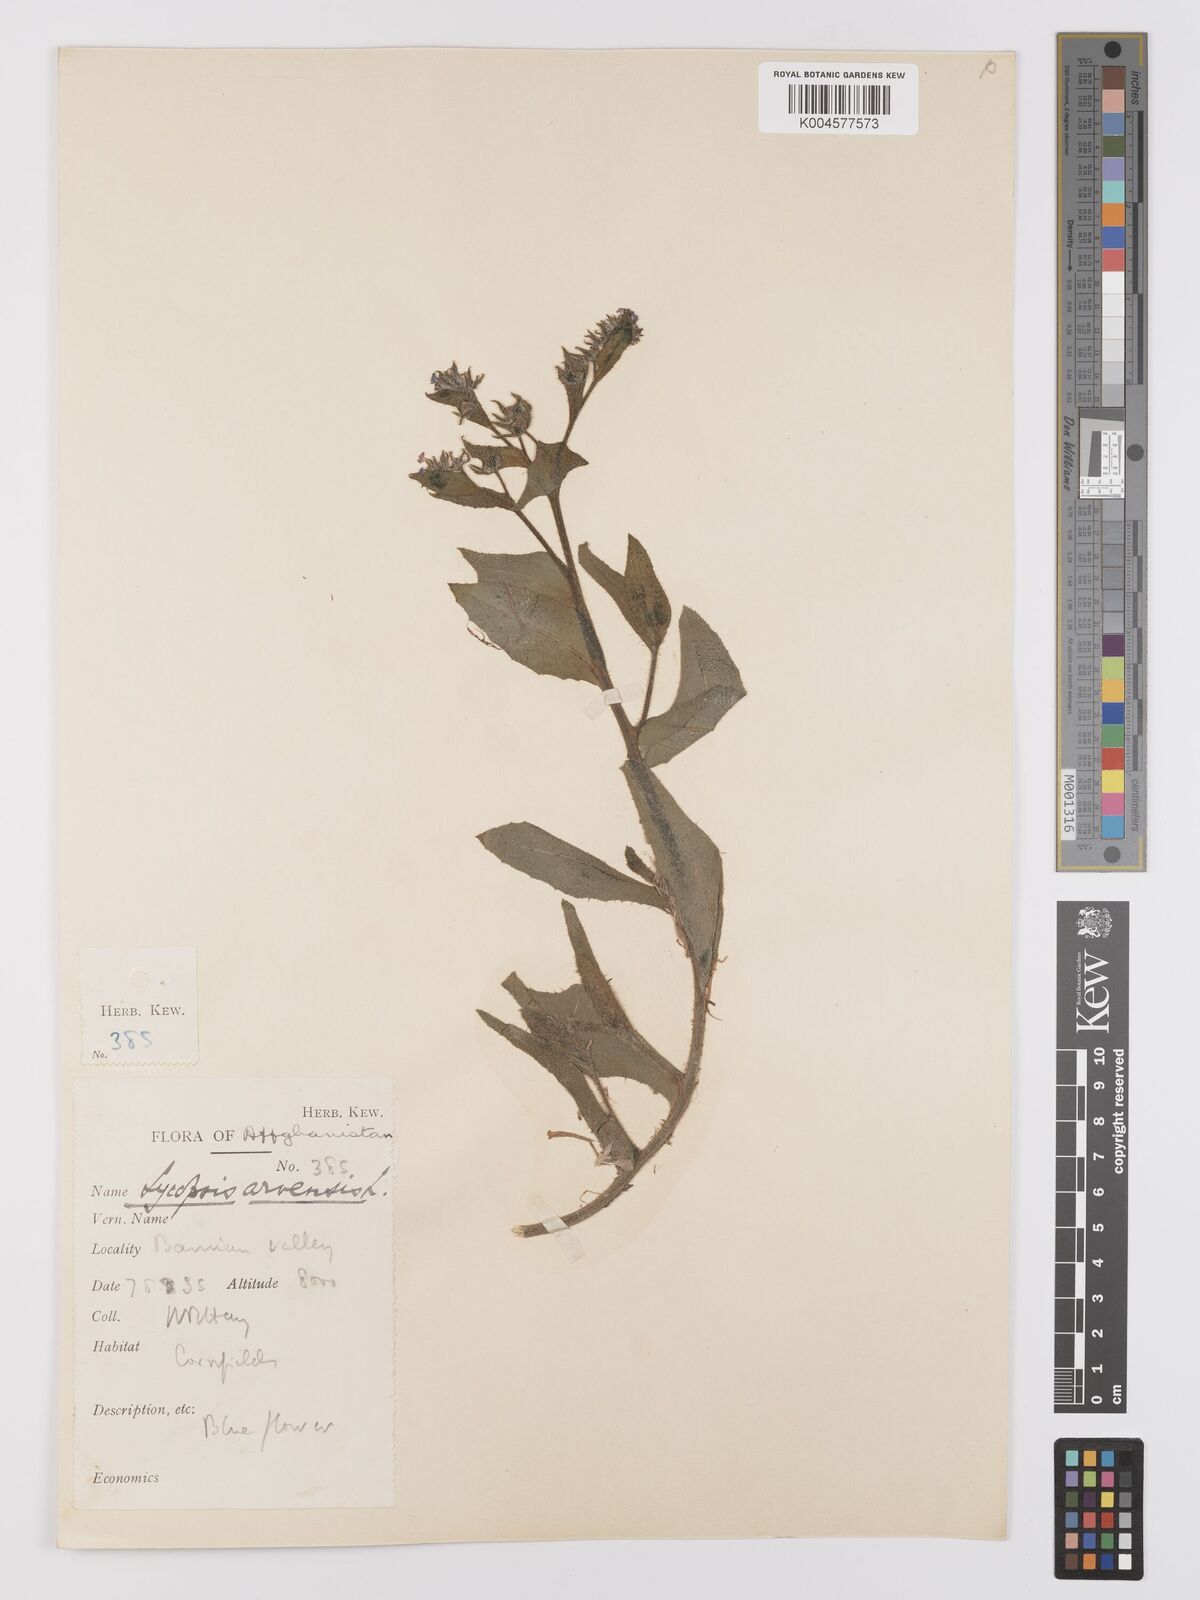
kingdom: Plantae
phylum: Tracheophyta
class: Magnoliopsida
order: Boraginales
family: Boraginaceae
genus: Lycopsis
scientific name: Lycopsis arvensis
